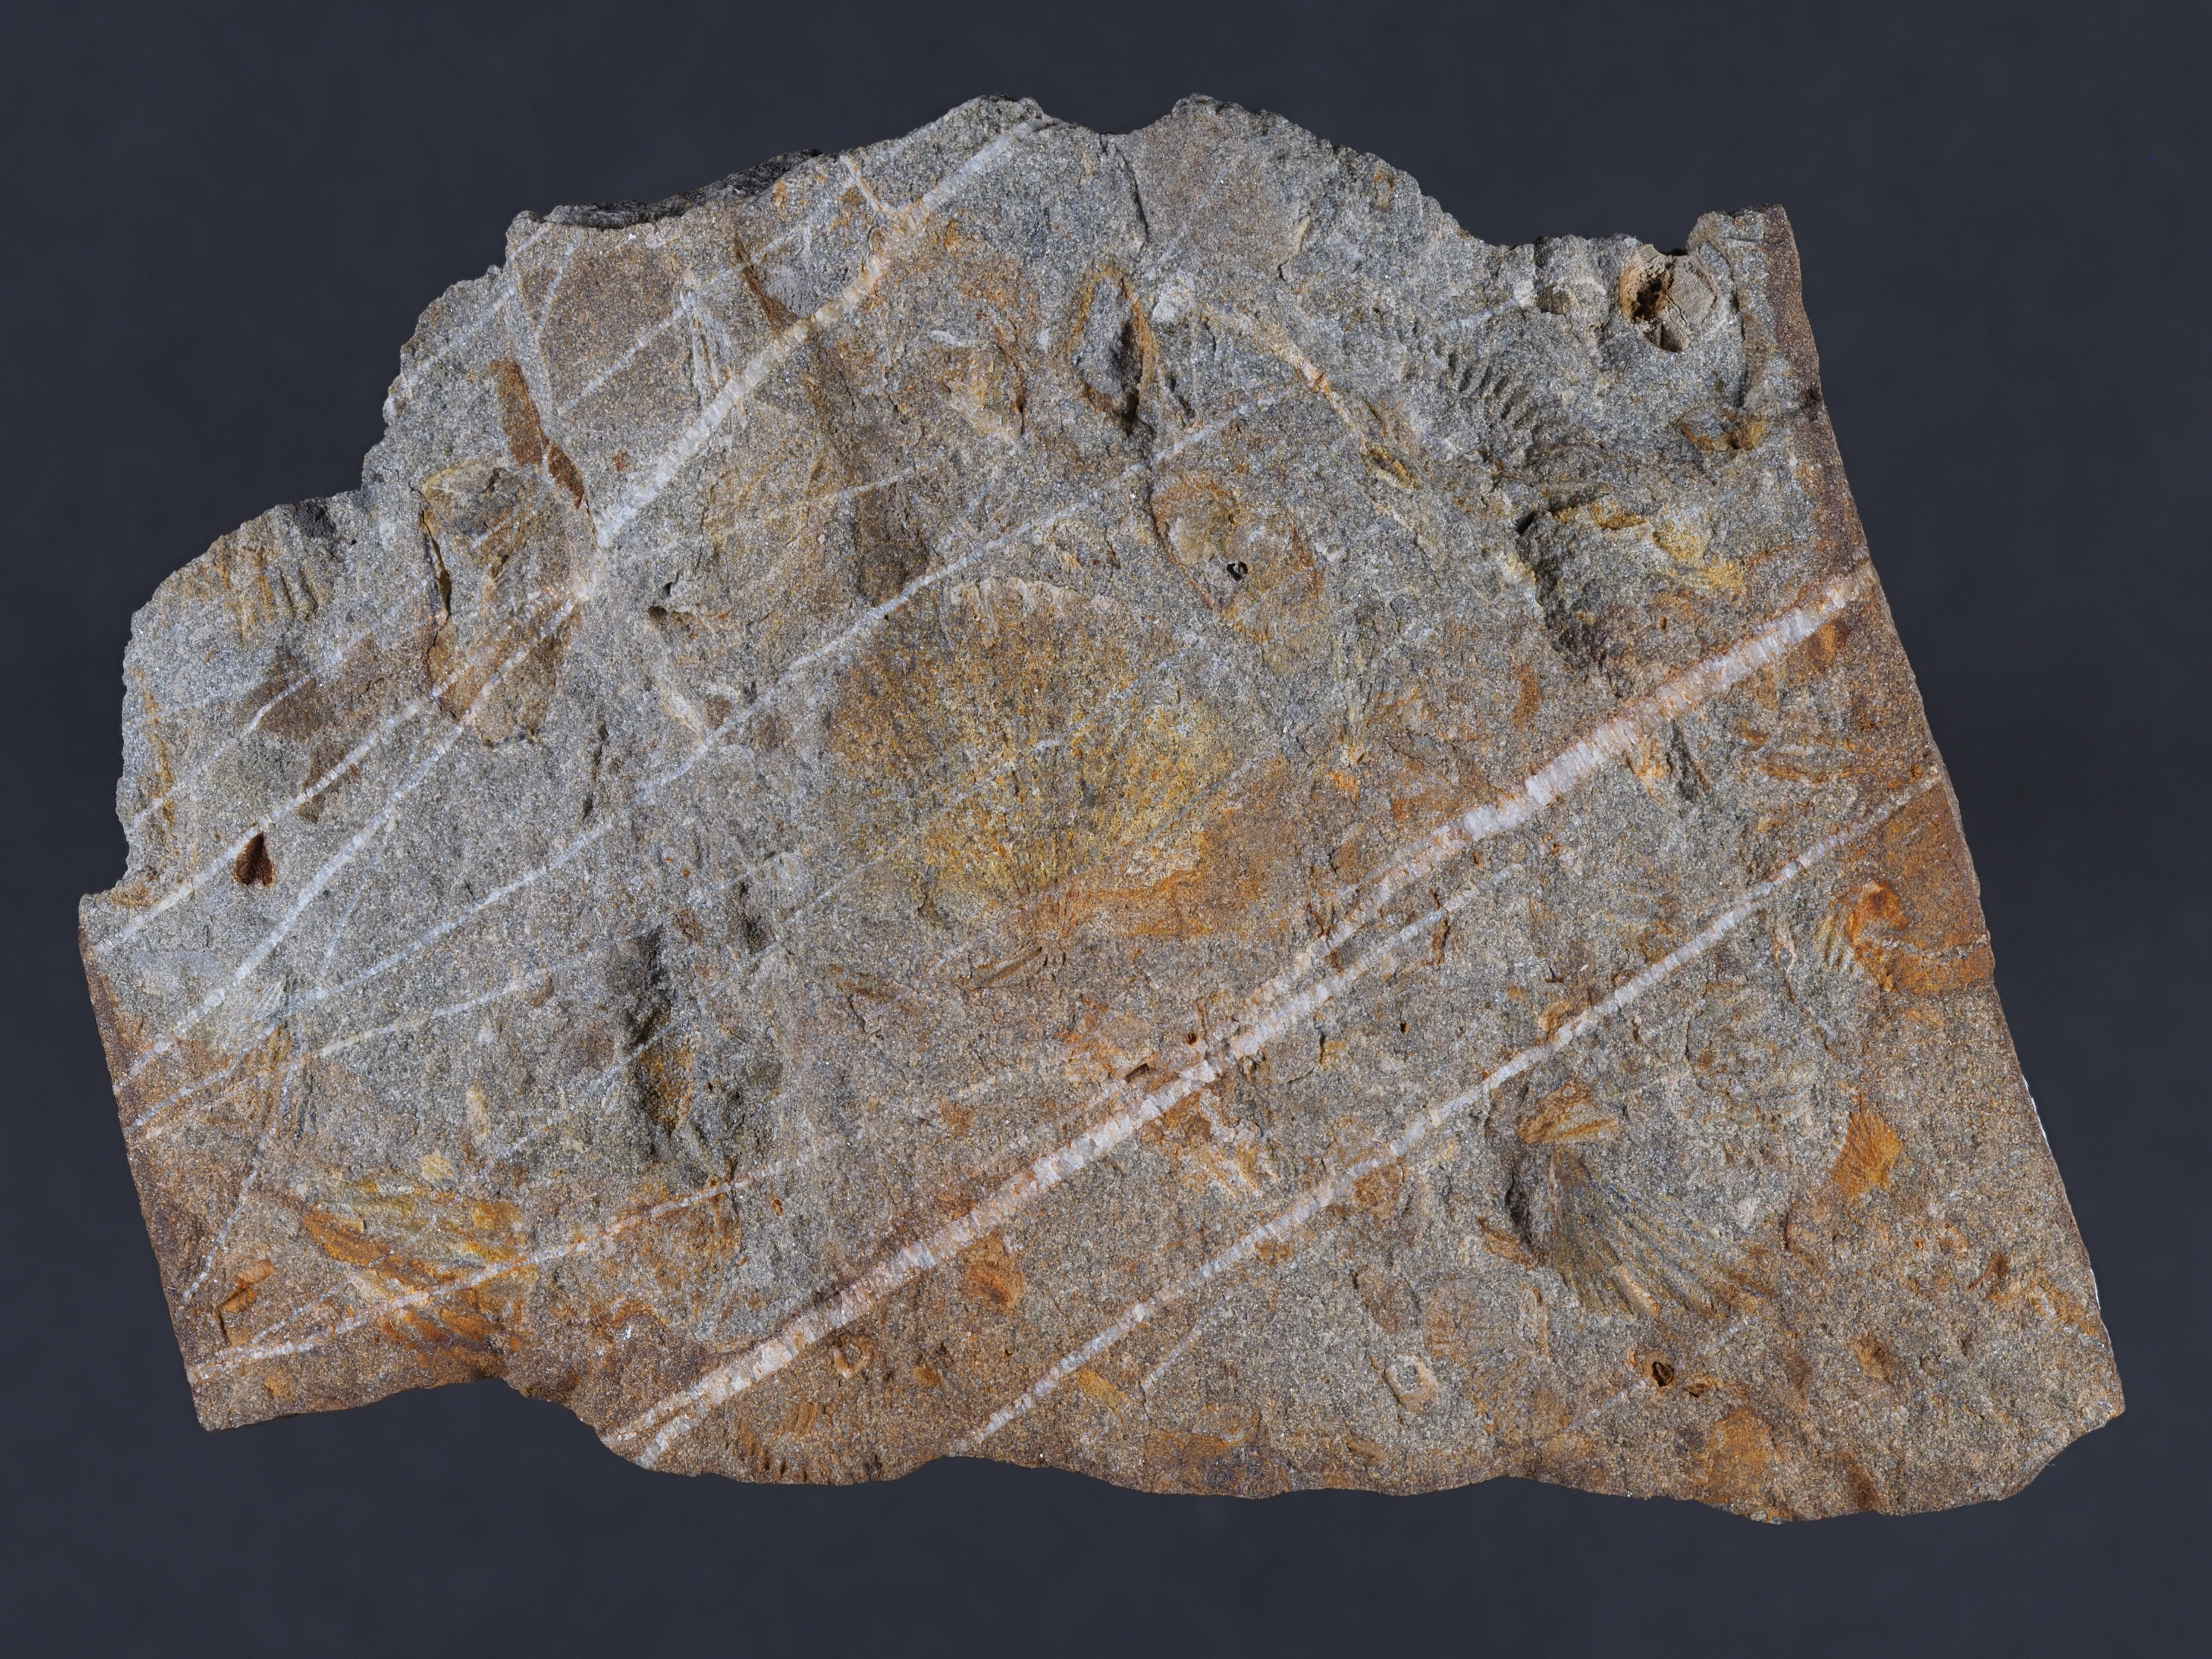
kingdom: Animalia
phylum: Brachiopoda
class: Rhynchonellata
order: Terebratulida
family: Tropidoleptidae
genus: Tropidoleptus
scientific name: Tropidoleptus
